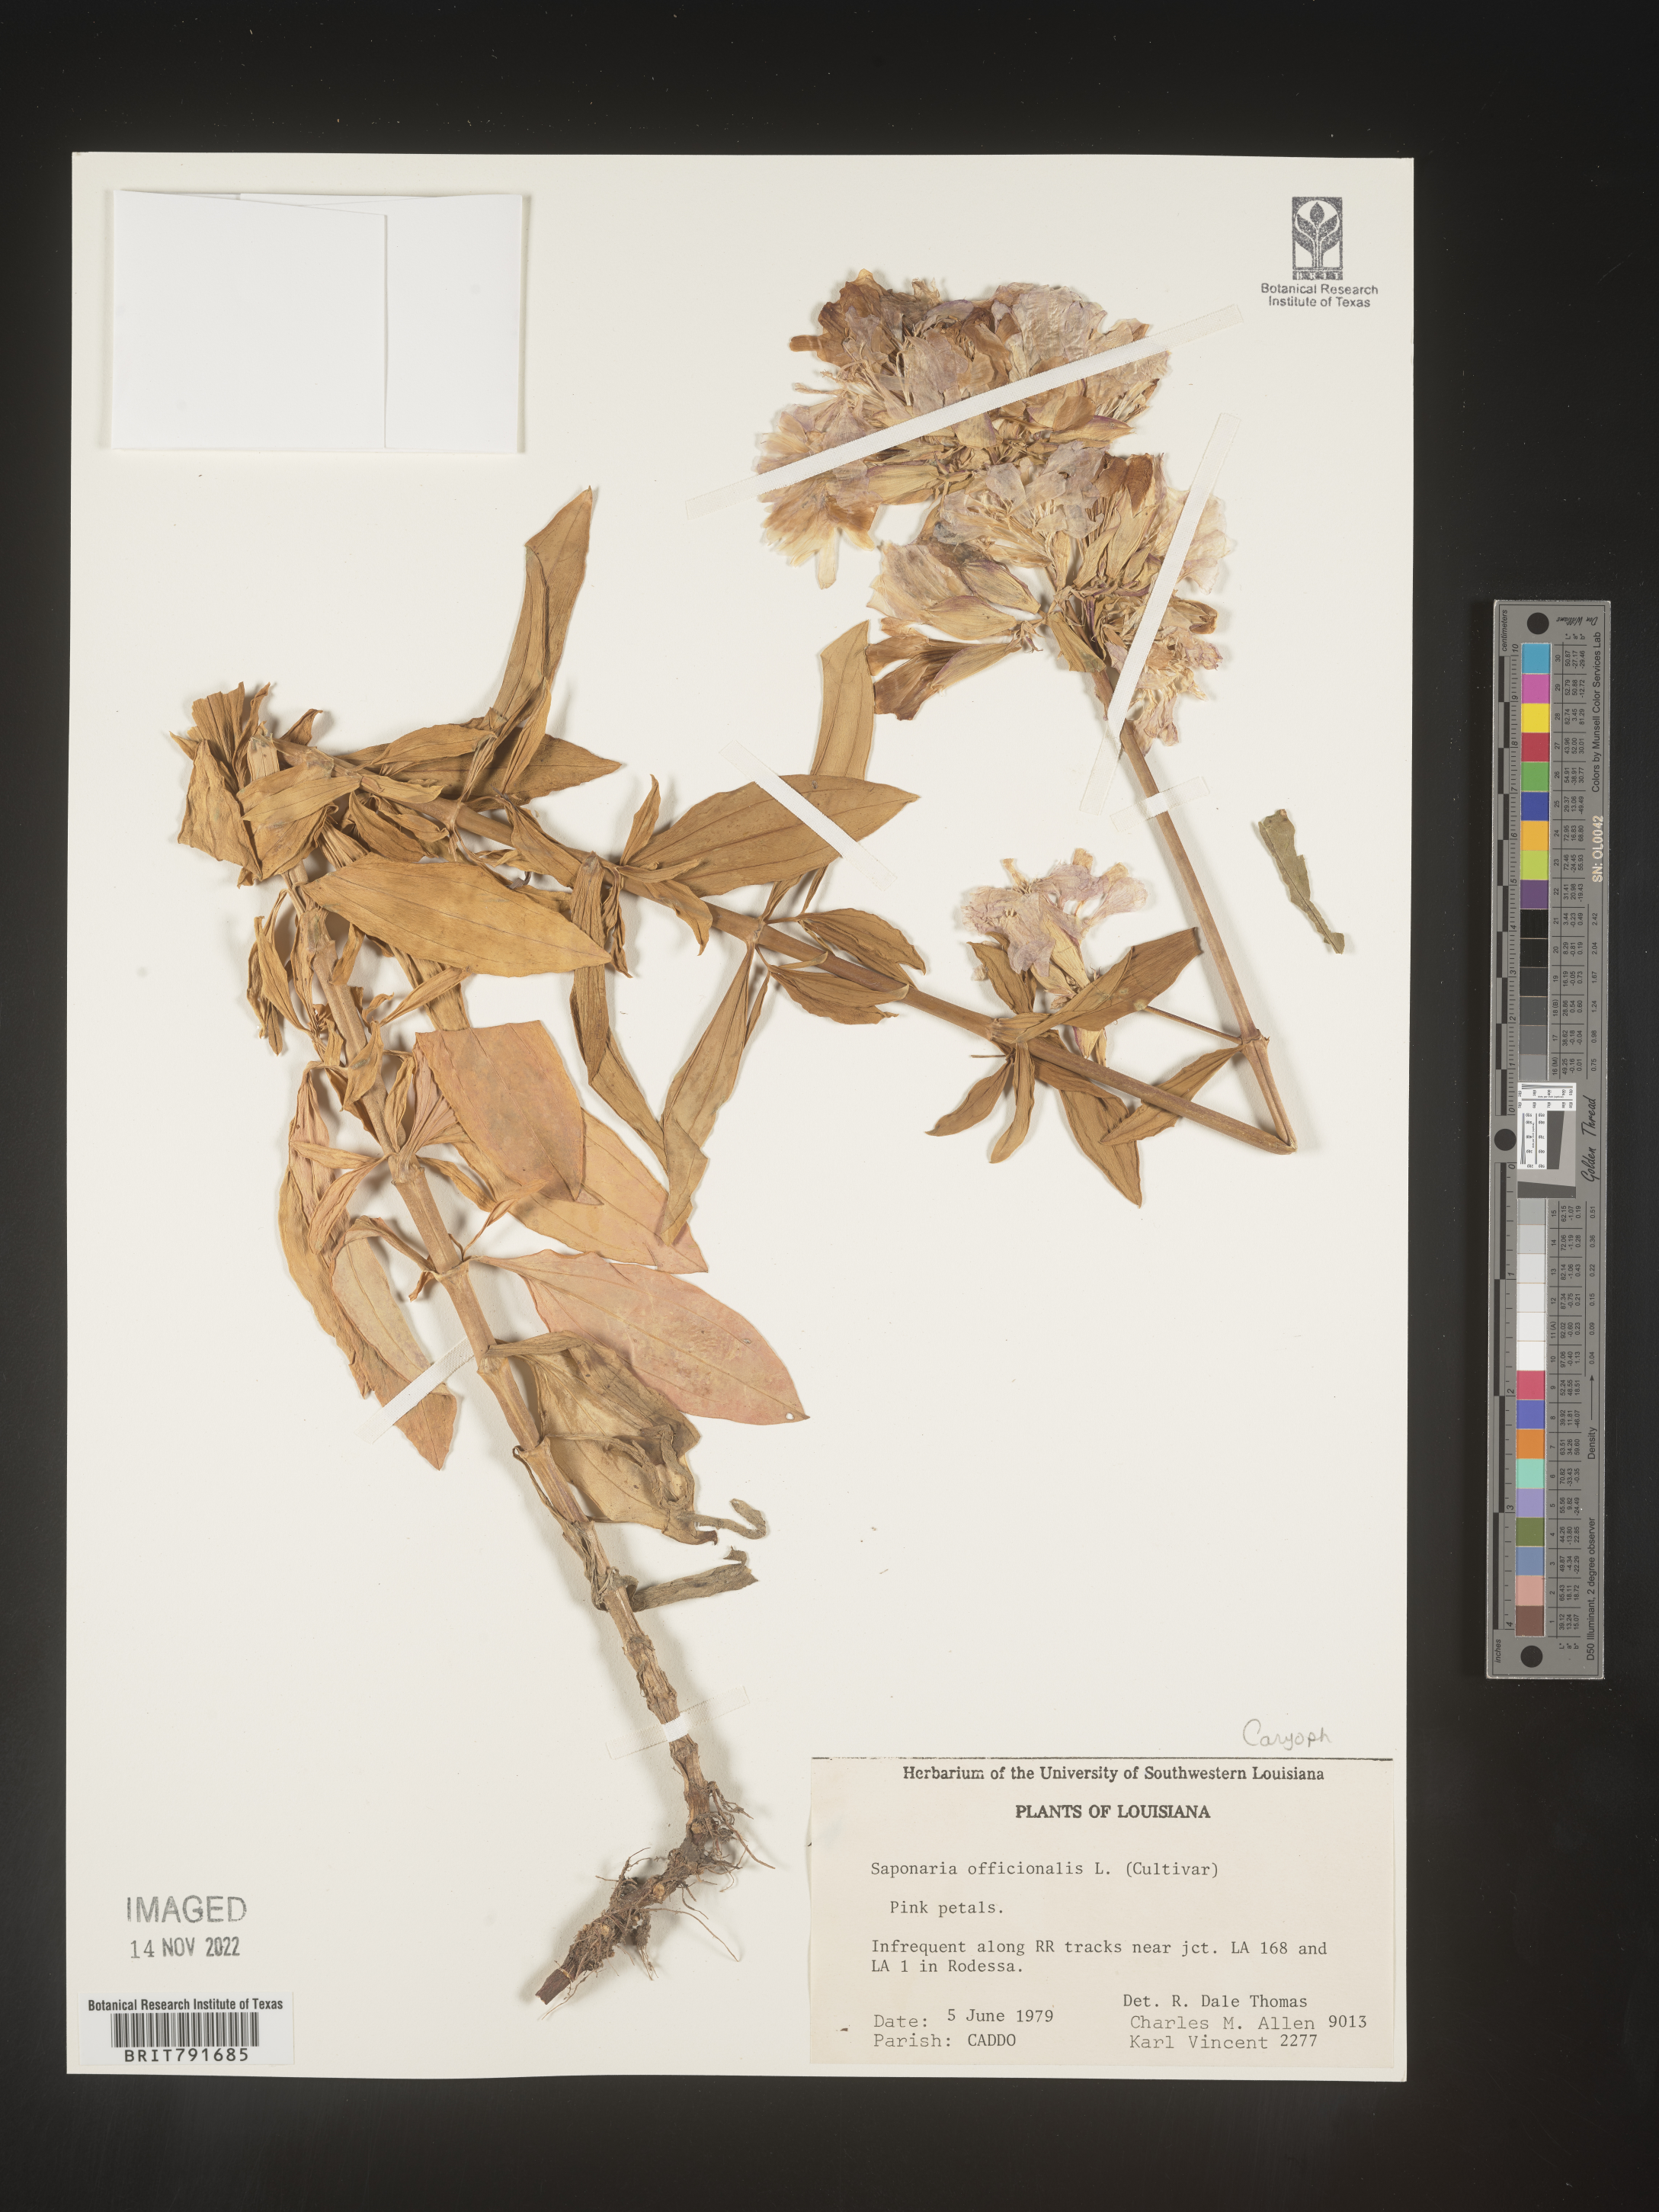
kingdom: Plantae
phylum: Tracheophyta
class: Magnoliopsida
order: Caryophyllales
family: Caryophyllaceae
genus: Saponaria
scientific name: Saponaria officinalis
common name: Soapwort
